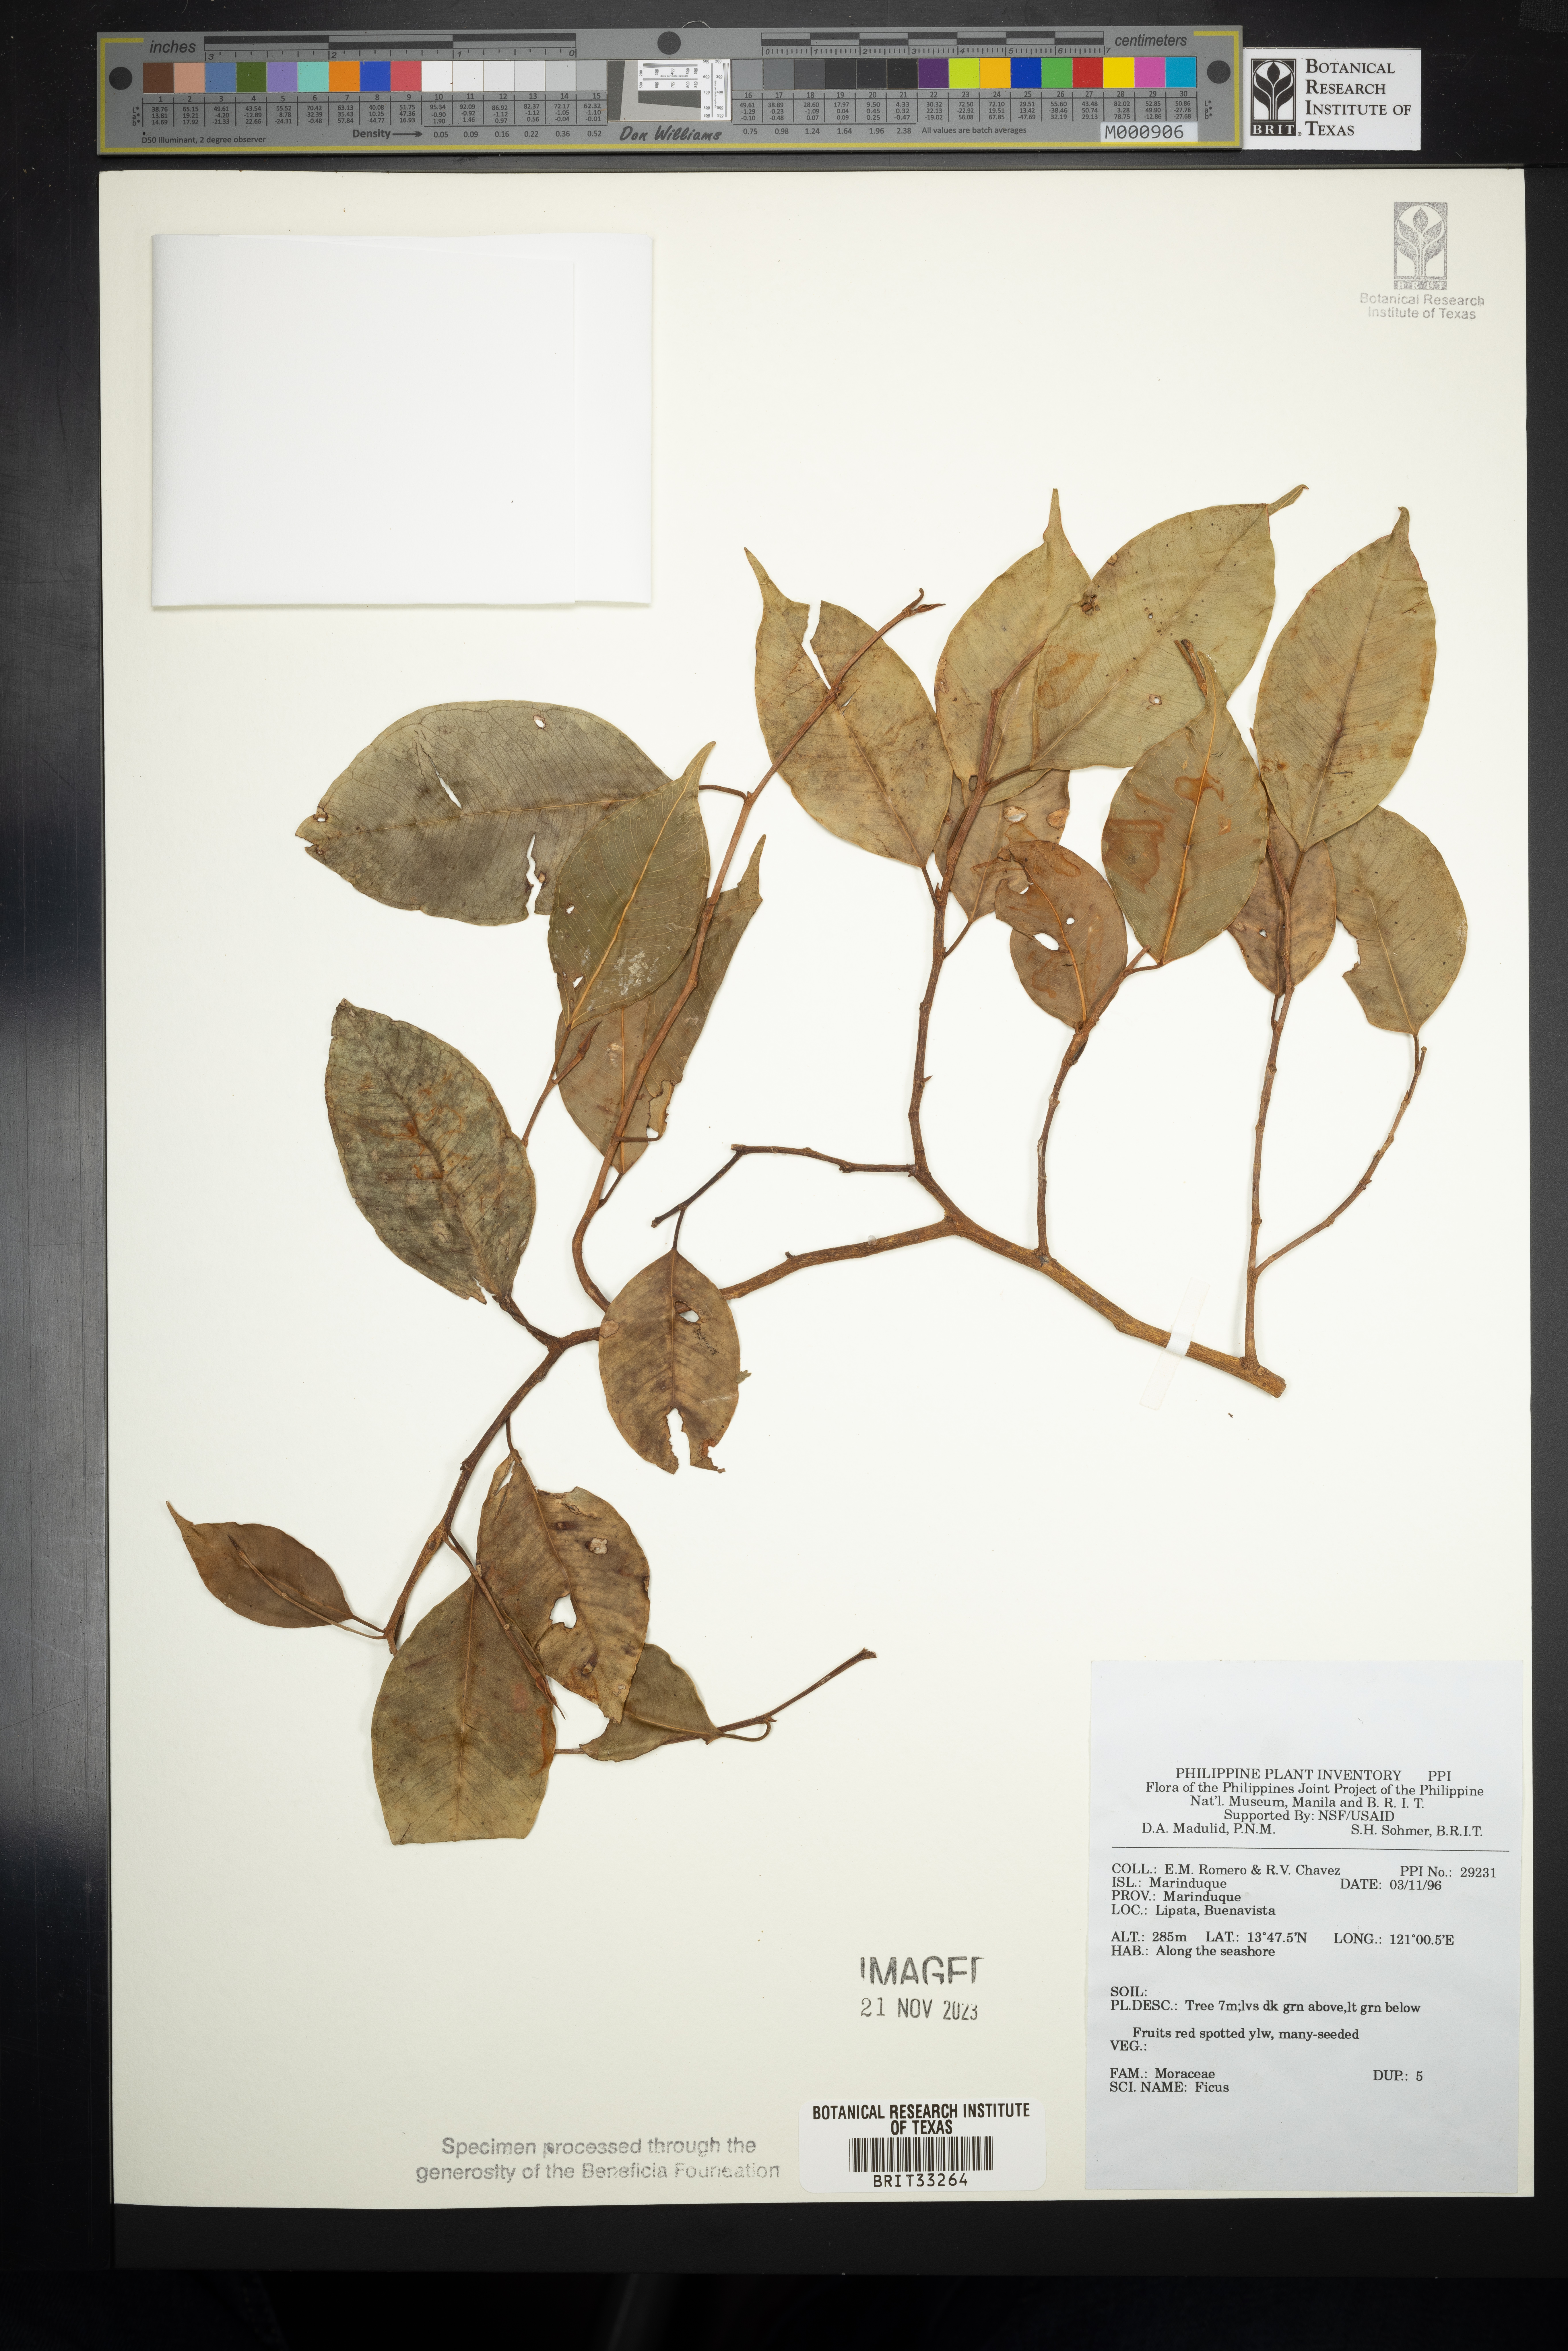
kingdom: Plantae
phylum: Tracheophyta
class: Magnoliopsida
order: Rosales
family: Moraceae
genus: Ficus
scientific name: Ficus
